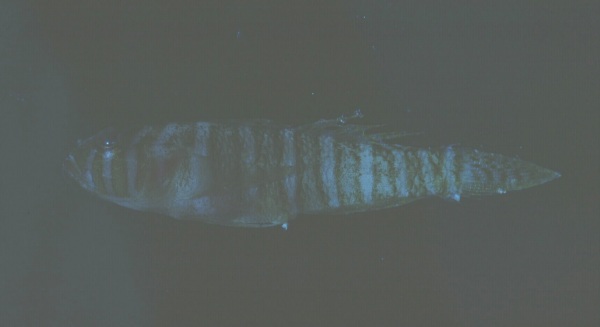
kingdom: Animalia
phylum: Chordata
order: Perciformes
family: Gobiidae
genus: Priolepis
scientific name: Priolepis cincta
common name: Banded reef-goby
